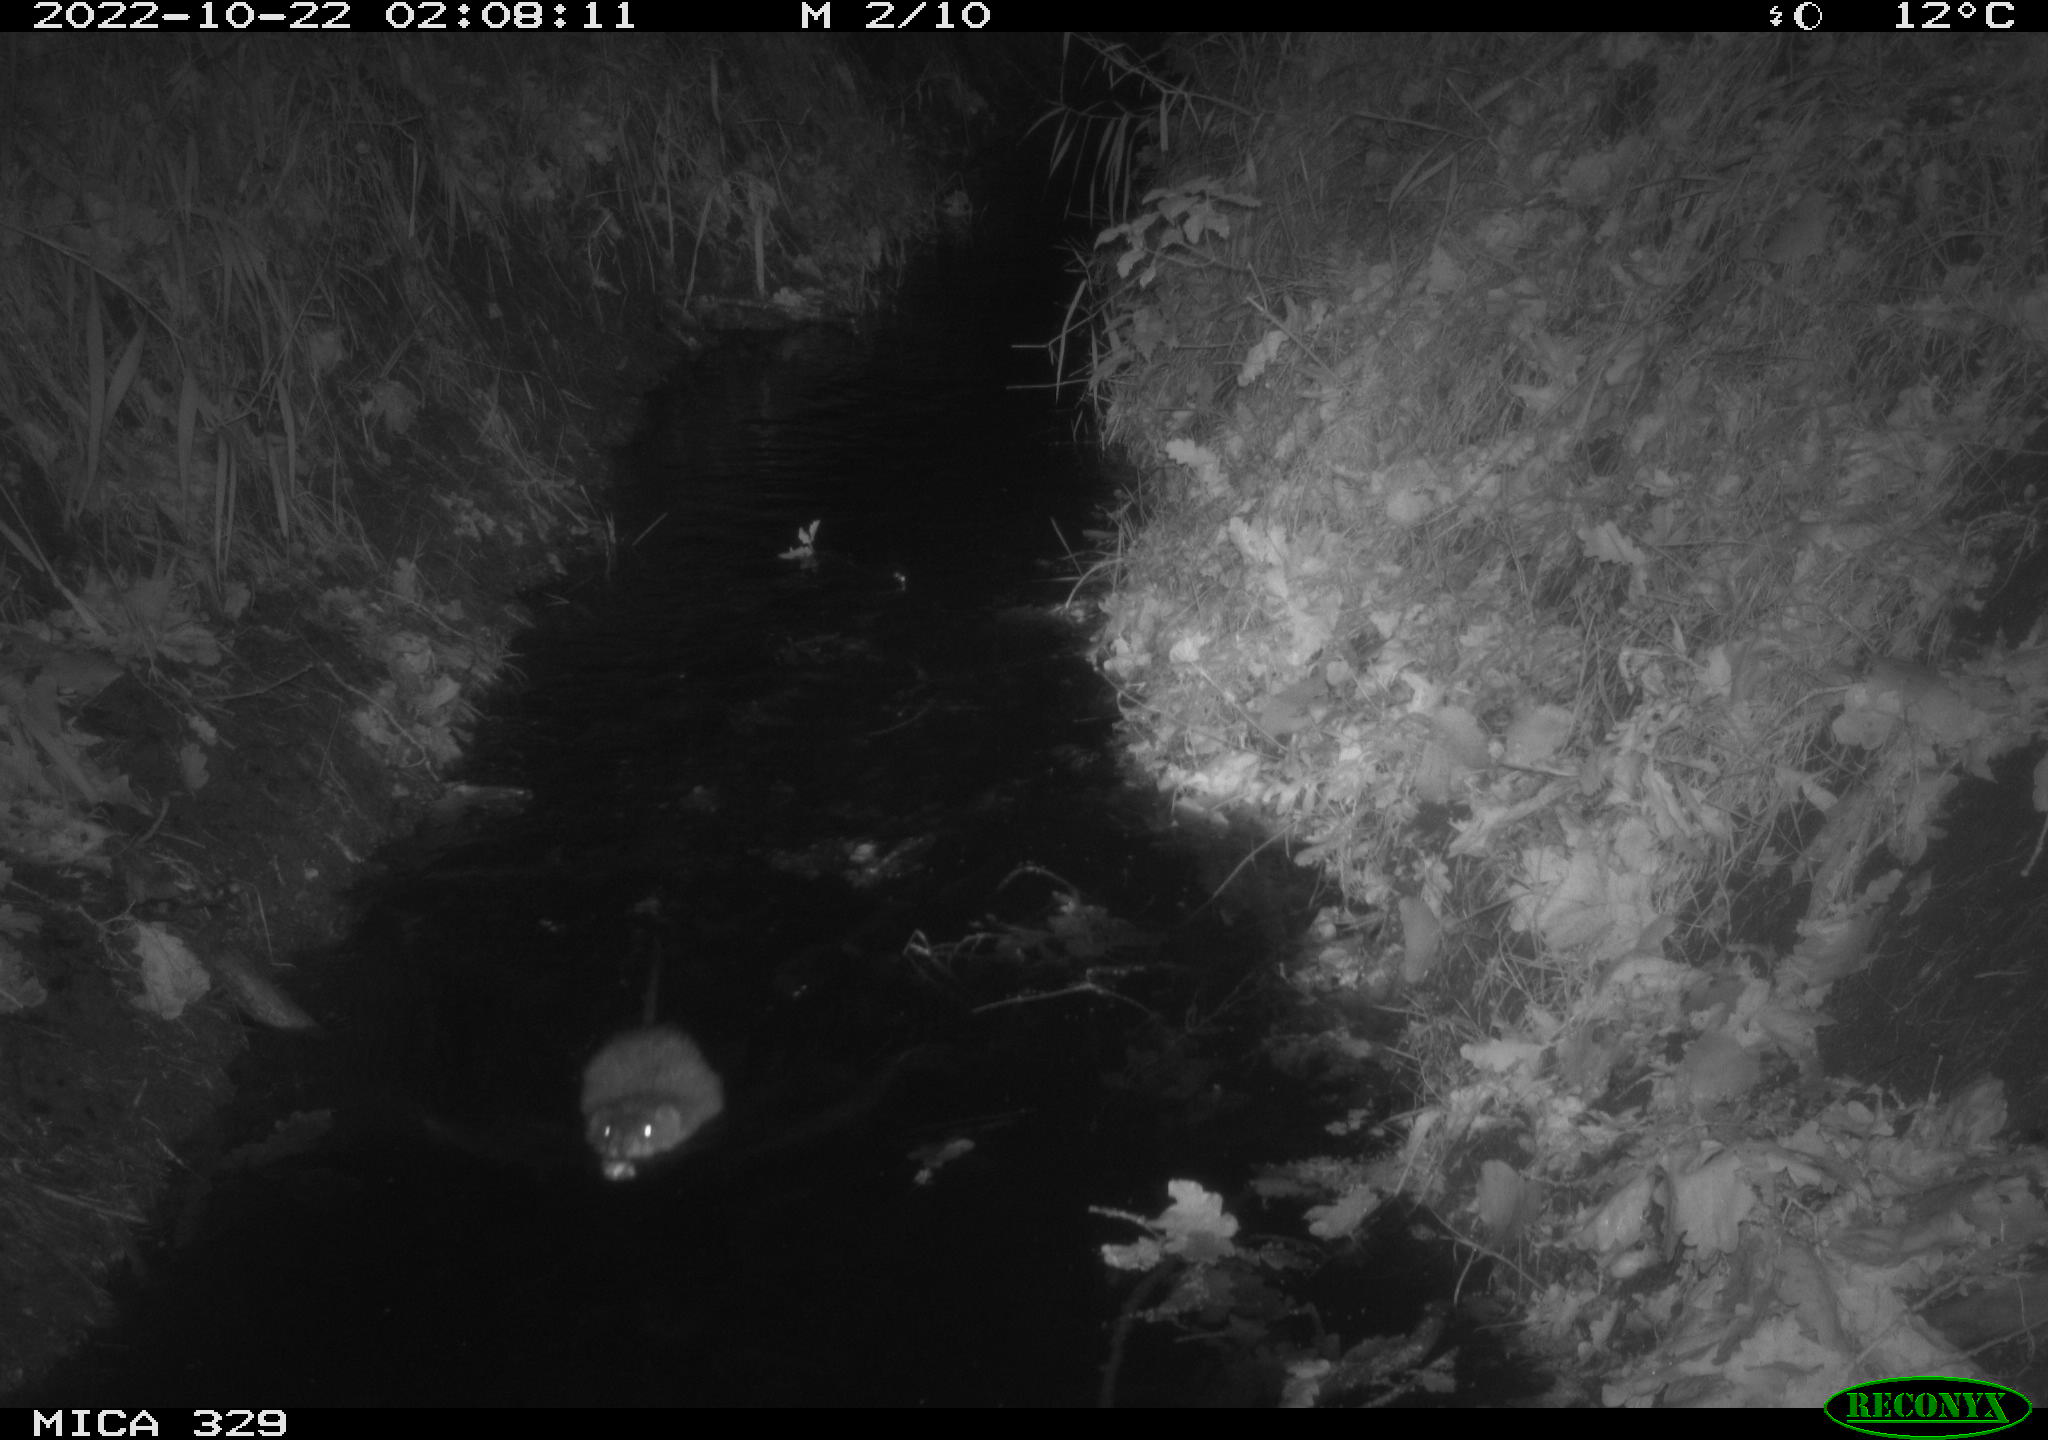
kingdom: Animalia
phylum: Chordata
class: Mammalia
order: Rodentia
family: Cricetidae
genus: Ondatra
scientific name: Ondatra zibethicus
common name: Muskrat
